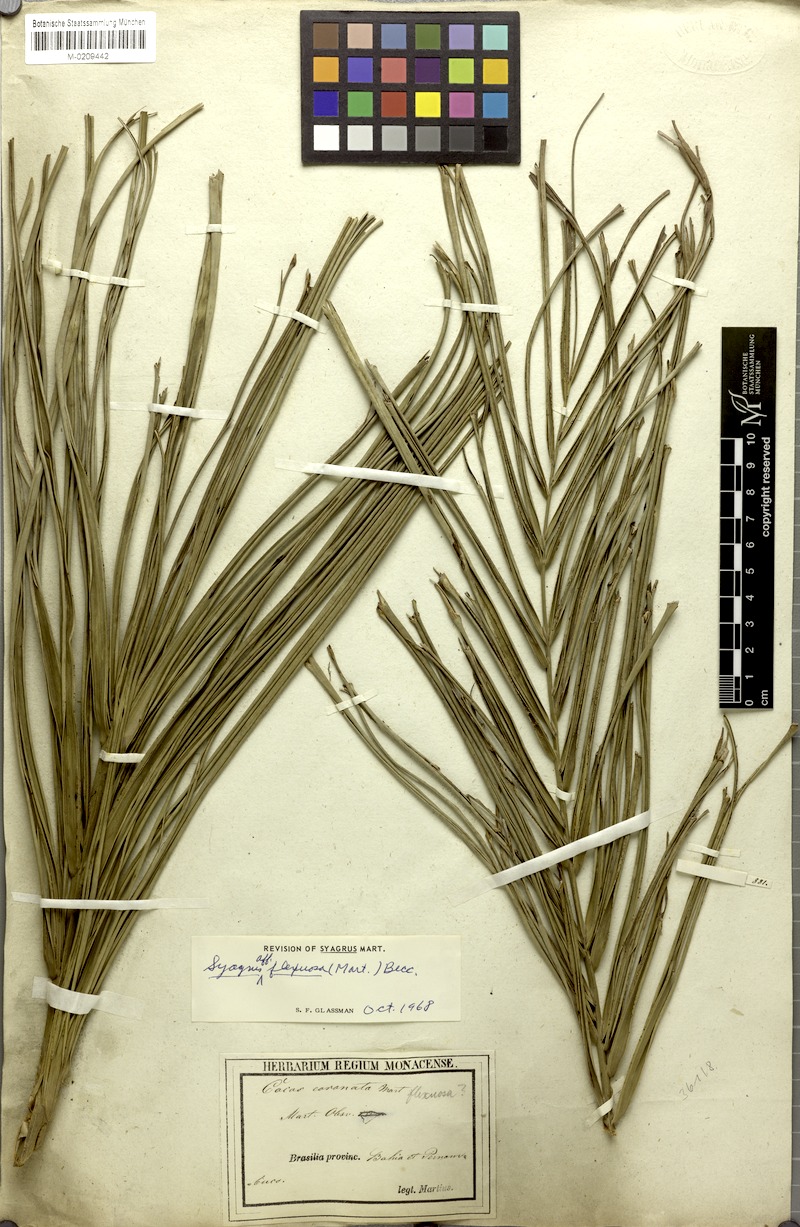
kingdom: Plantae
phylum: Tracheophyta
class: Liliopsida
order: Arecales
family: Arecaceae
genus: Syagrus
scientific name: Syagrus flexuosa
